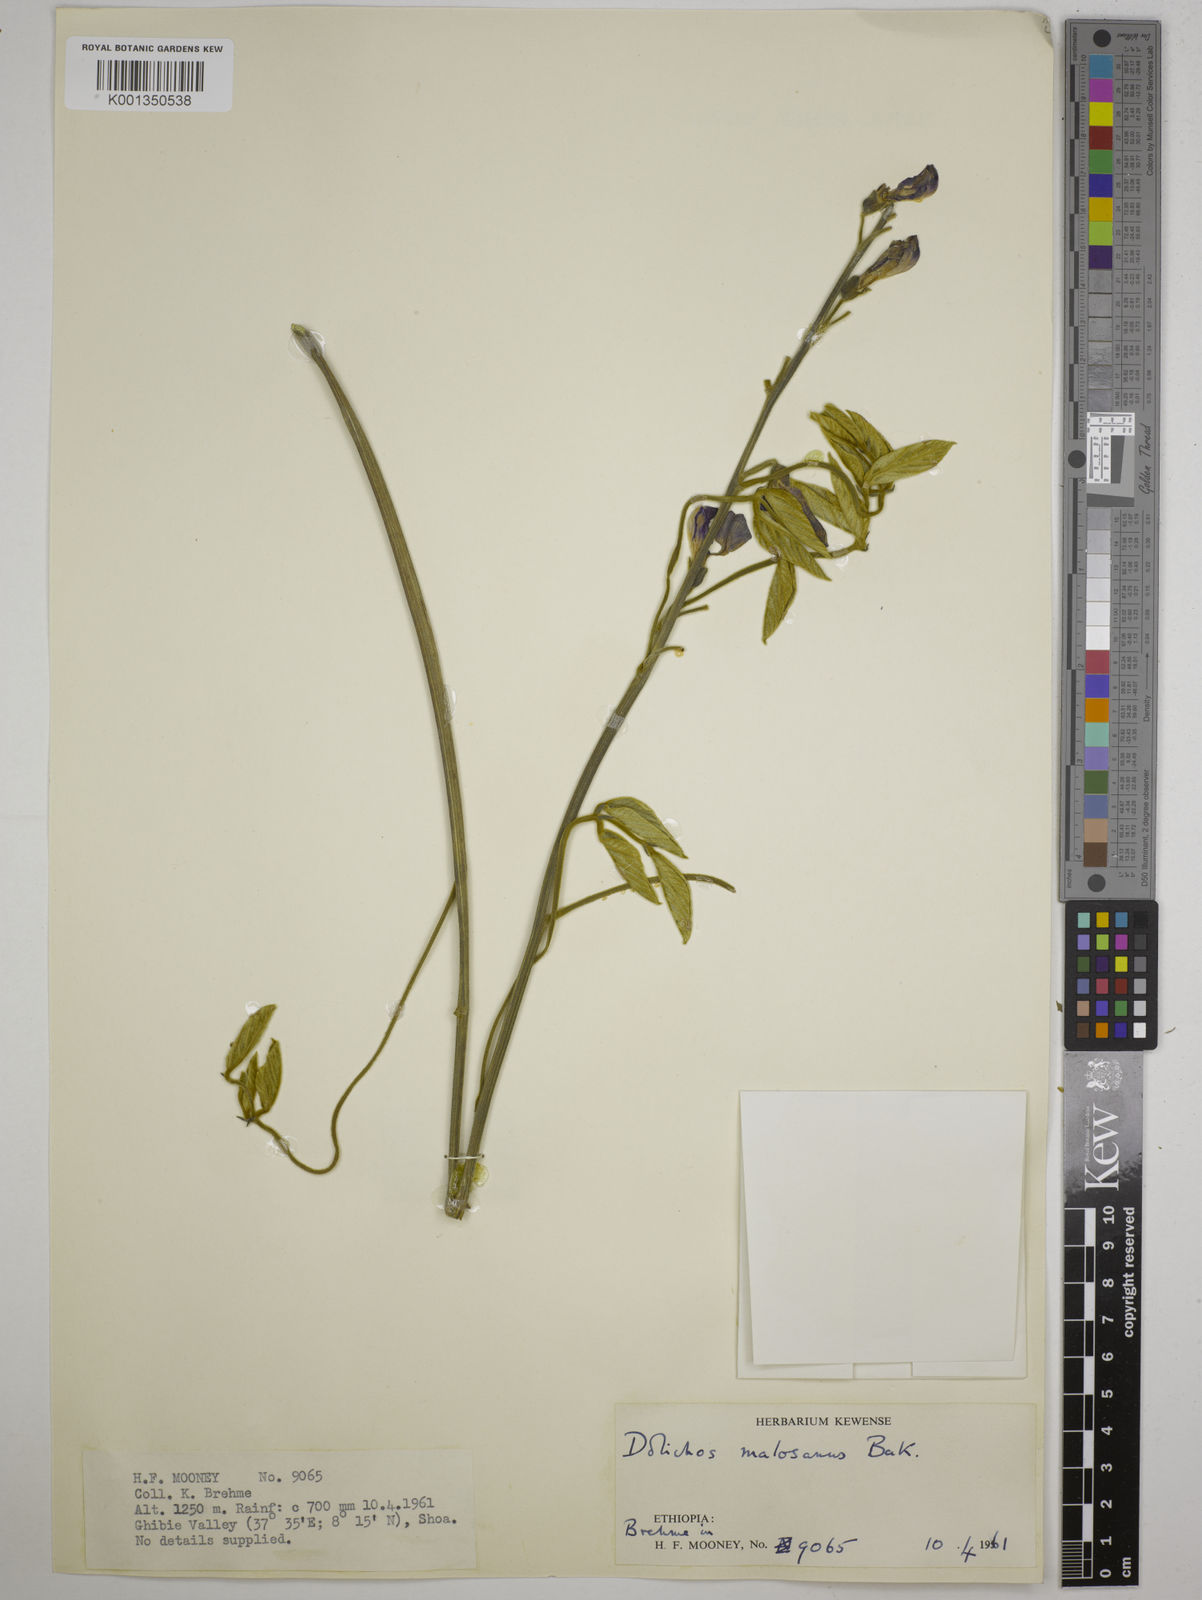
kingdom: Plantae
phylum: Tracheophyta
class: Magnoliopsida
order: Fabales
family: Fabaceae
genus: Dolichos
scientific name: Dolichos kilimandscharicus
